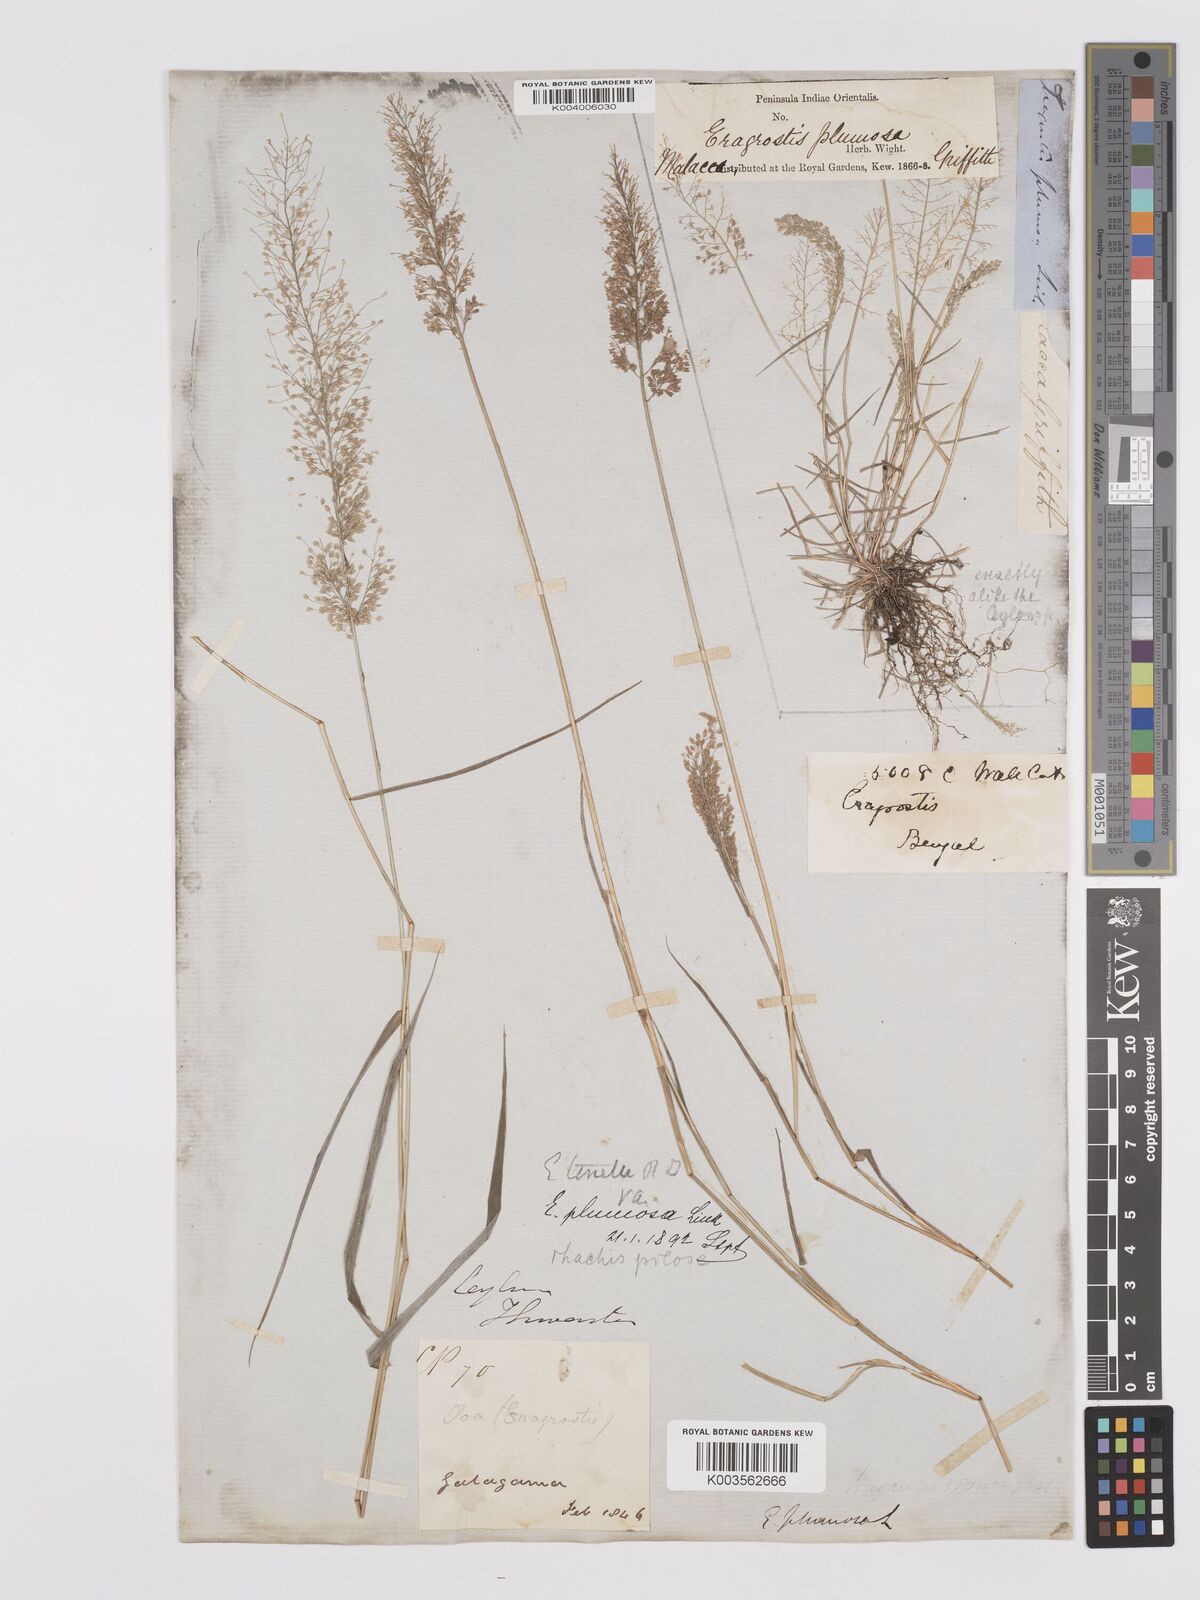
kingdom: Plantae
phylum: Tracheophyta
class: Liliopsida
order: Poales
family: Poaceae
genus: Eragrostis
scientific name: Eragrostis tenella
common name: Japanese lovegrass
